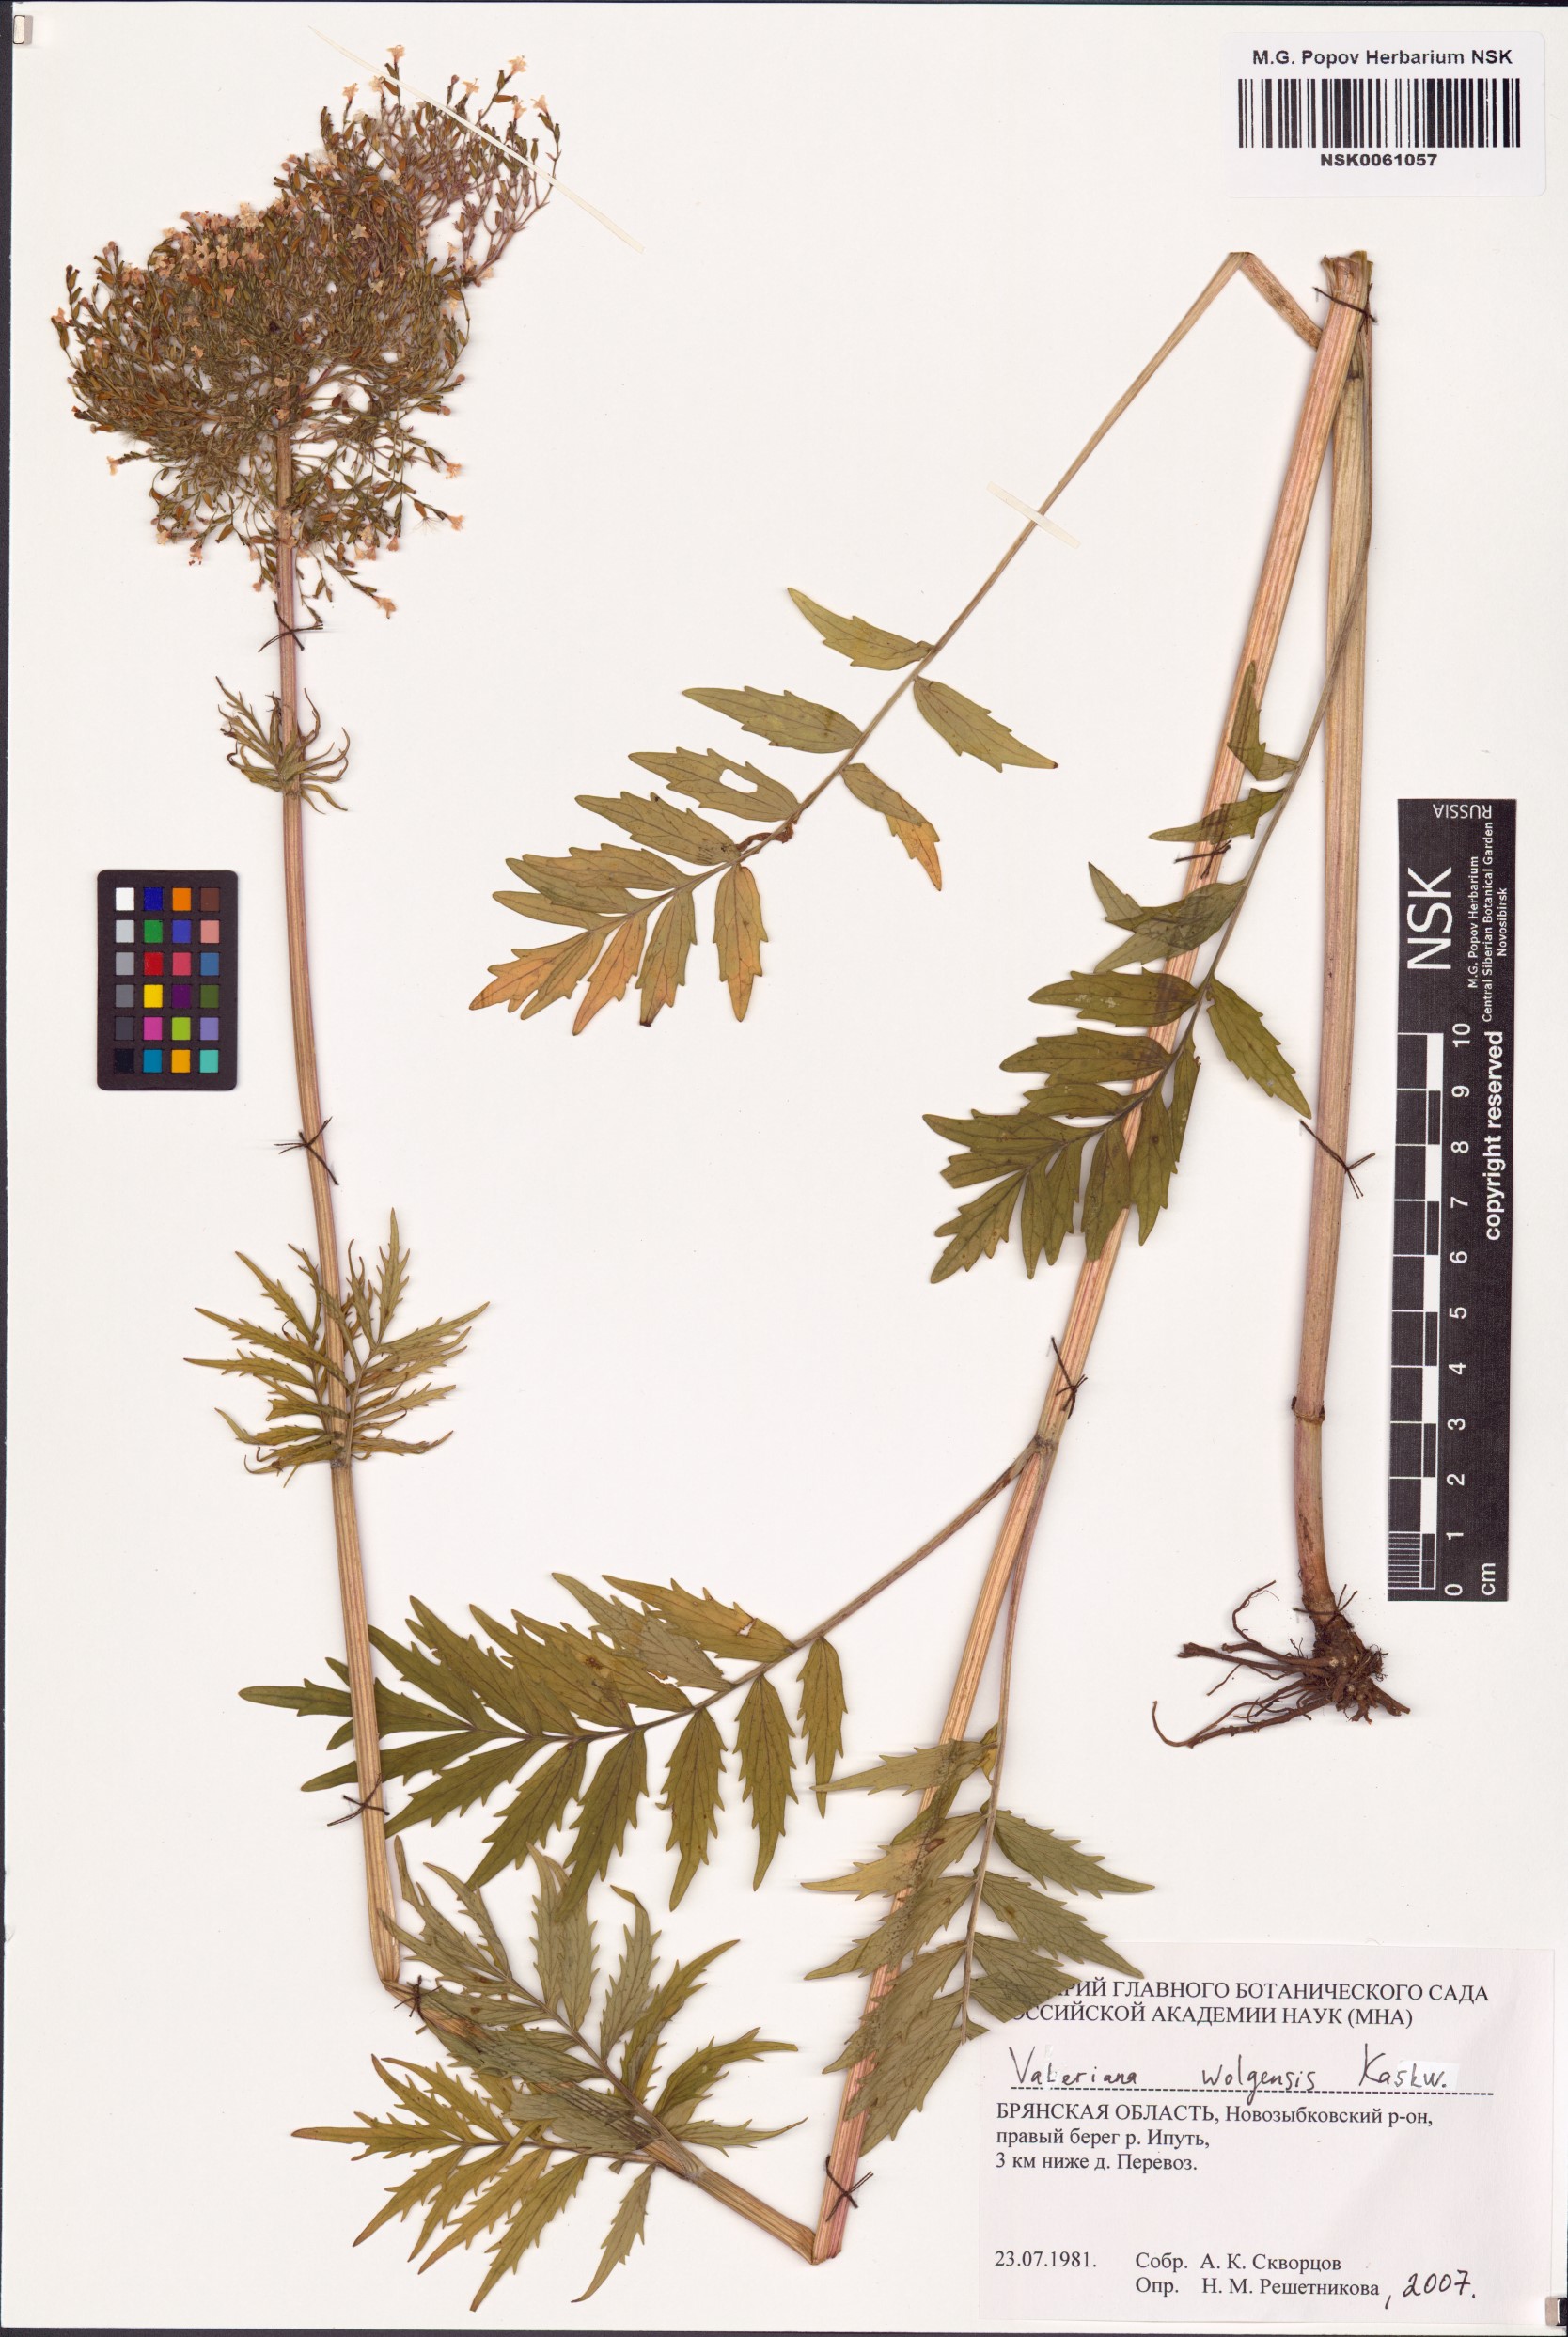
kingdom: Plantae
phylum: Tracheophyta
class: Magnoliopsida
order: Dipsacales
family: Caprifoliaceae
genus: Valeriana
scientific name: Valeriana wolgensis
